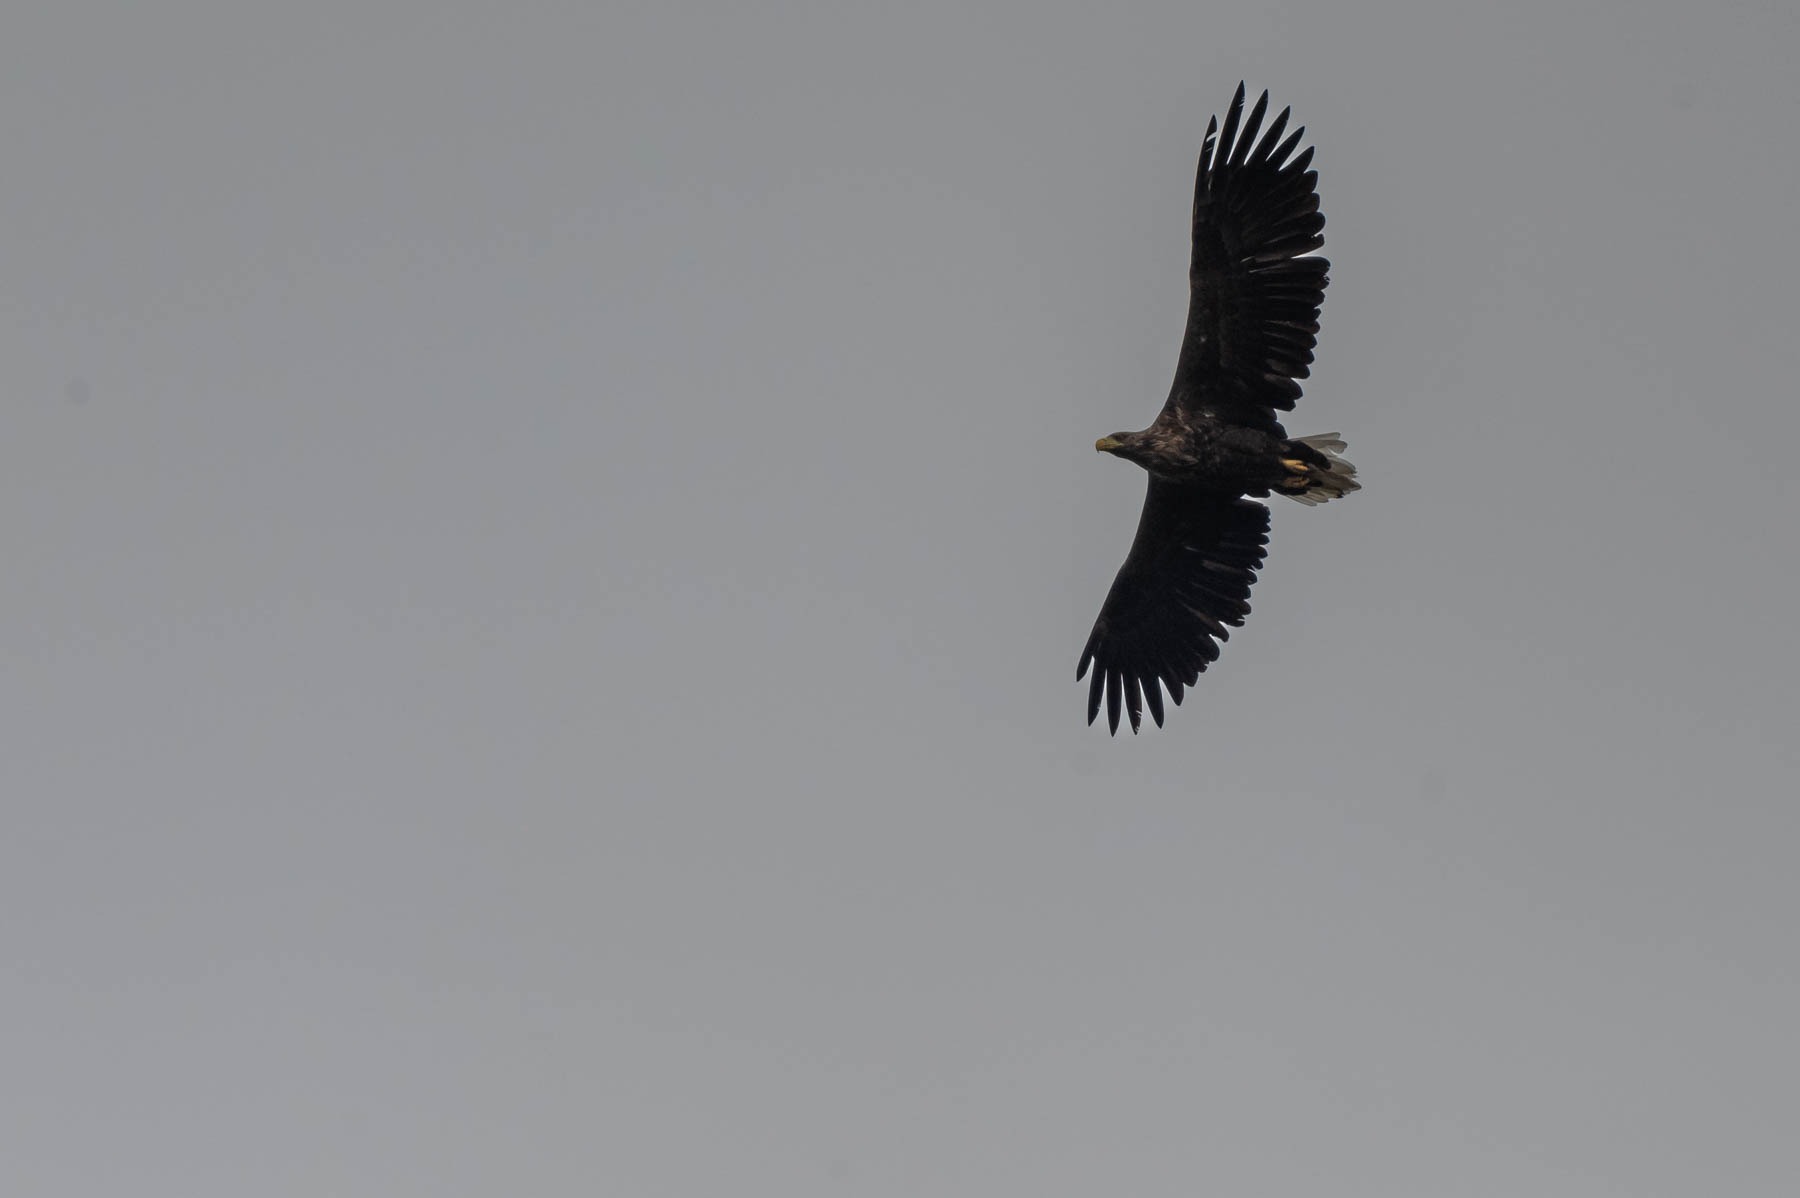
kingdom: Animalia
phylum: Chordata
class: Aves
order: Accipitriformes
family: Accipitridae
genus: Haliaeetus
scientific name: Haliaeetus albicilla
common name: Havørn
